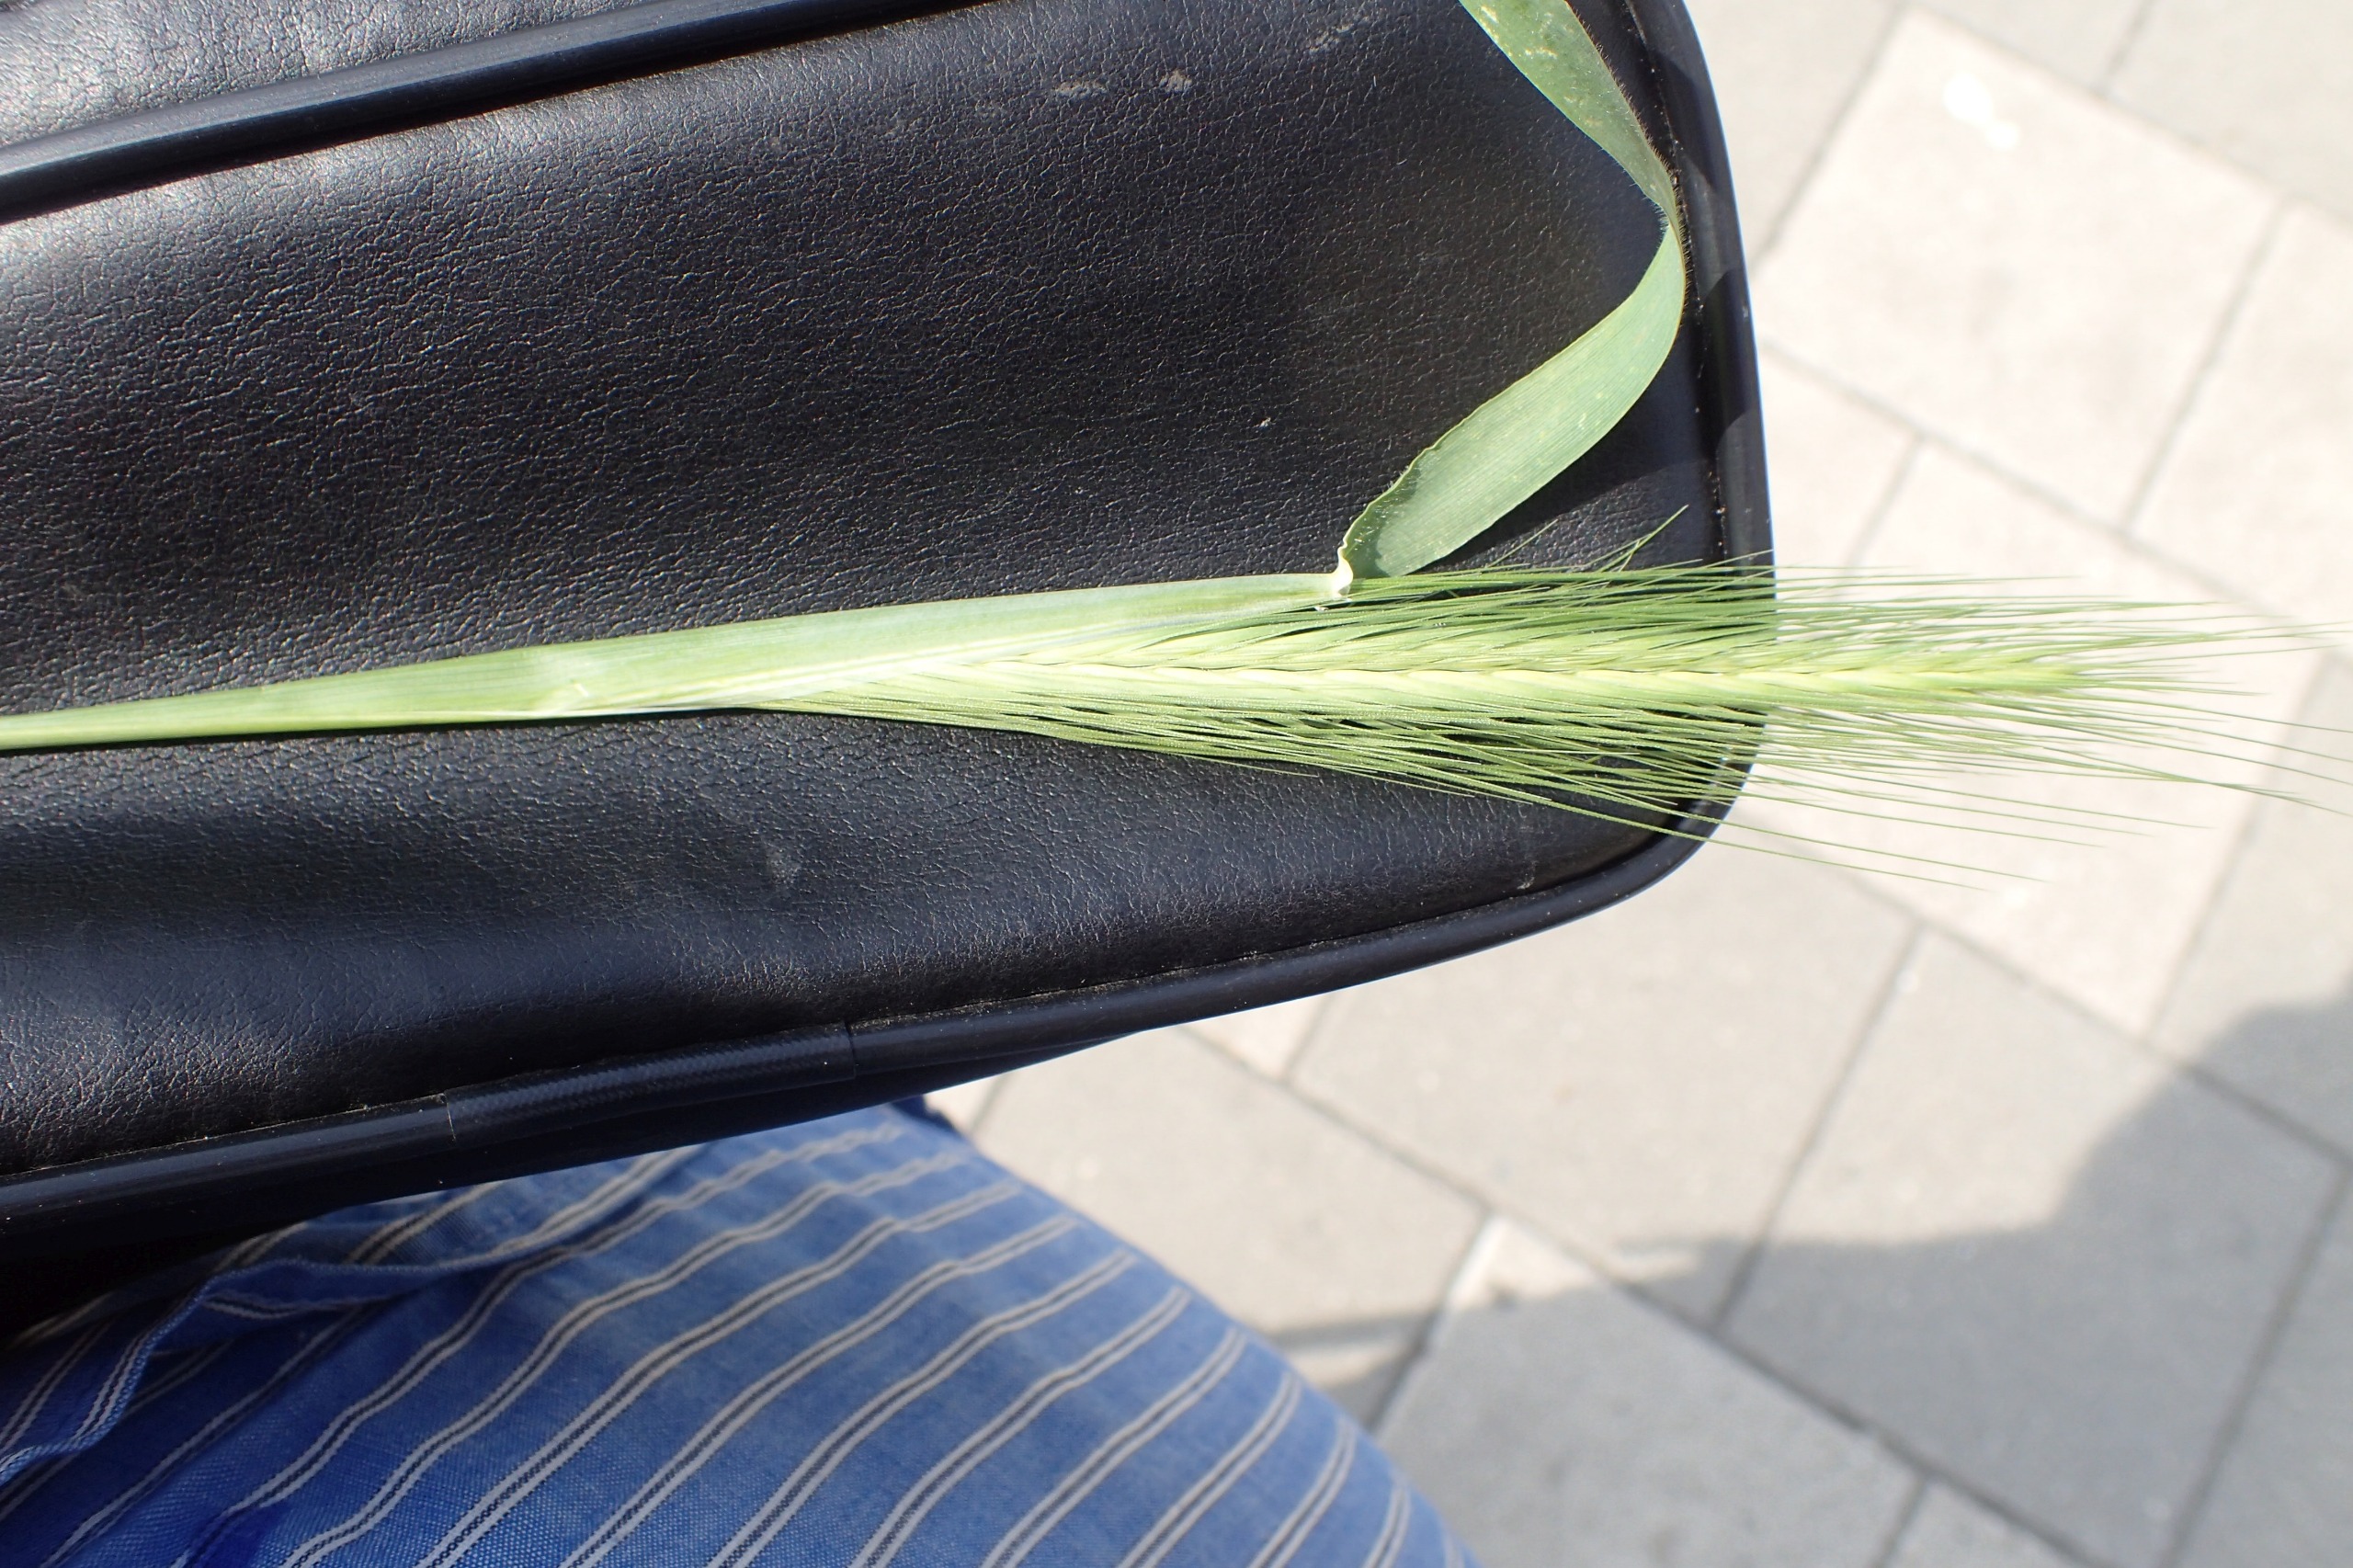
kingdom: Plantae
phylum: Tracheophyta
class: Liliopsida
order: Poales
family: Poaceae
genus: Hordeum
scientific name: Hordeum murinum
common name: Gold byg
